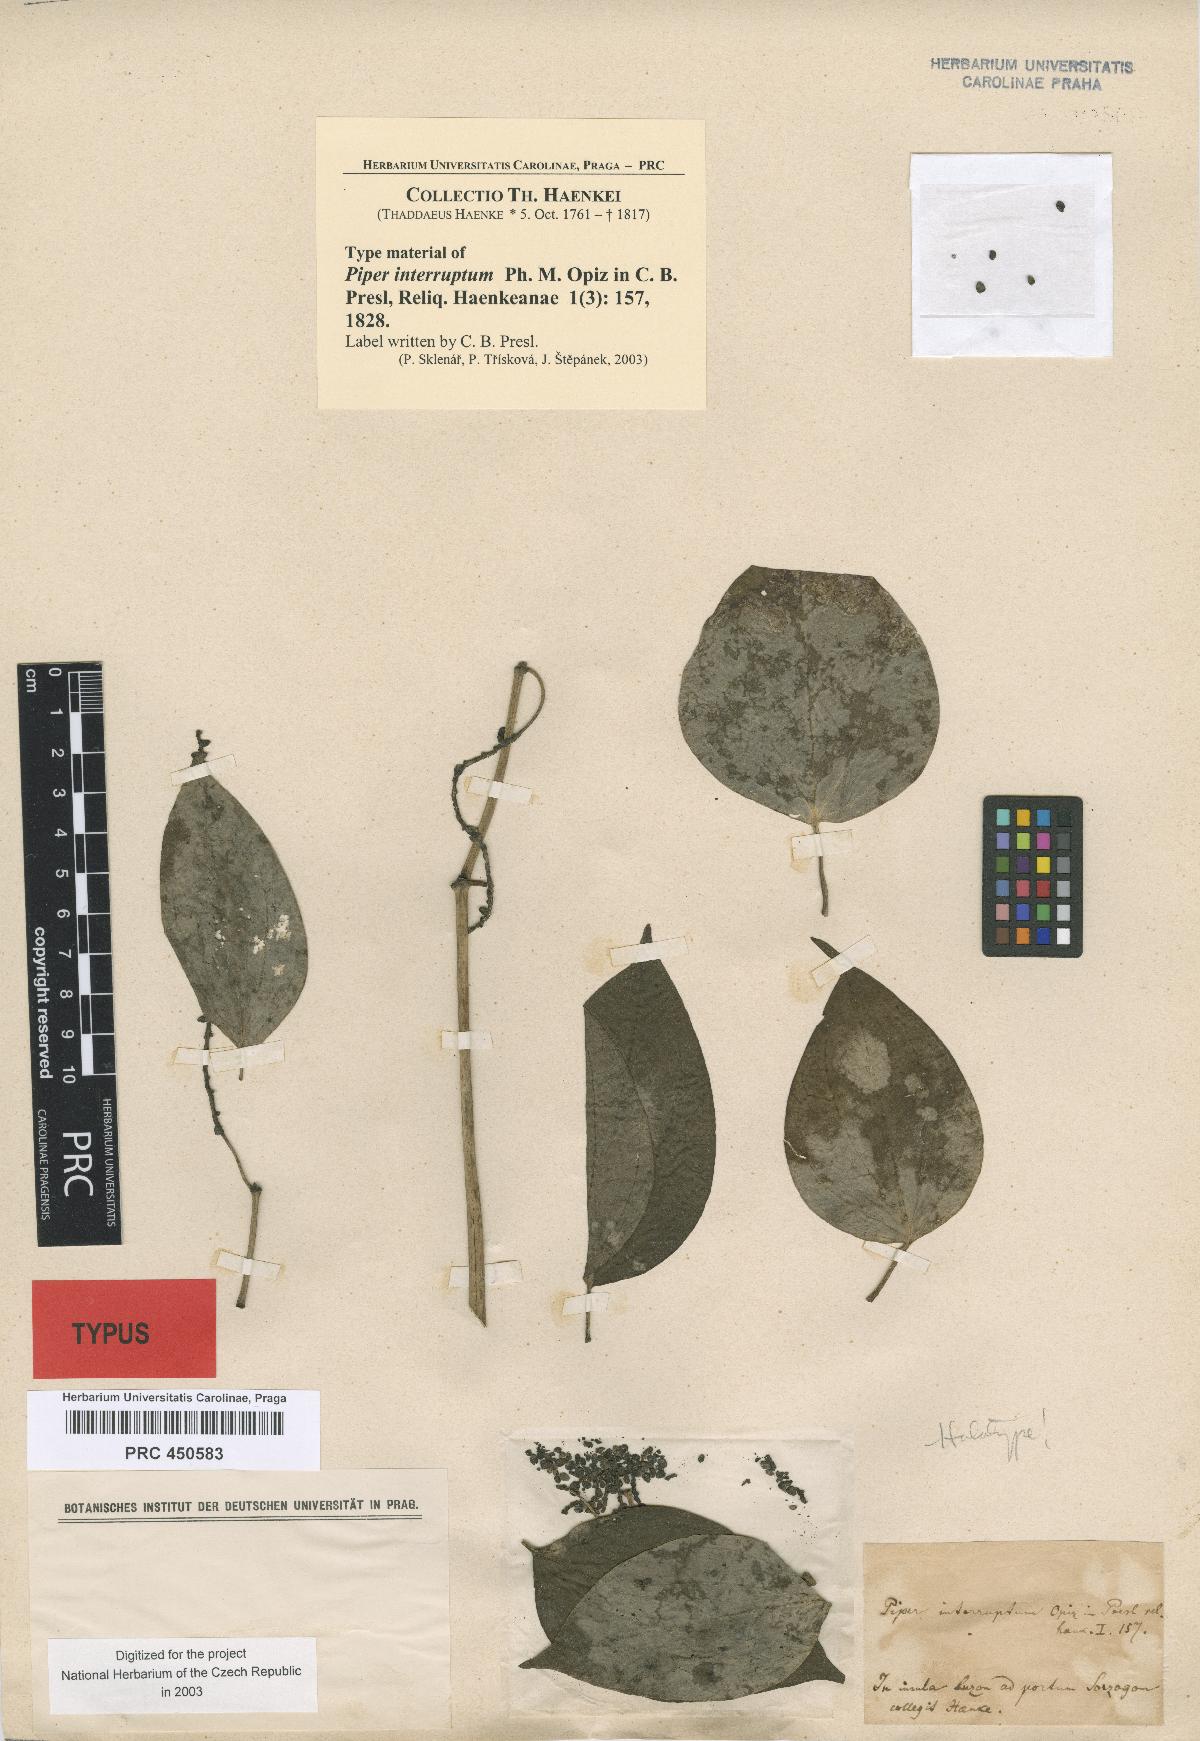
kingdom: Plantae
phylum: Tracheophyta
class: Magnoliopsida
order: Piperales
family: Piperaceae
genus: Piper
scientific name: Piper interruptum
